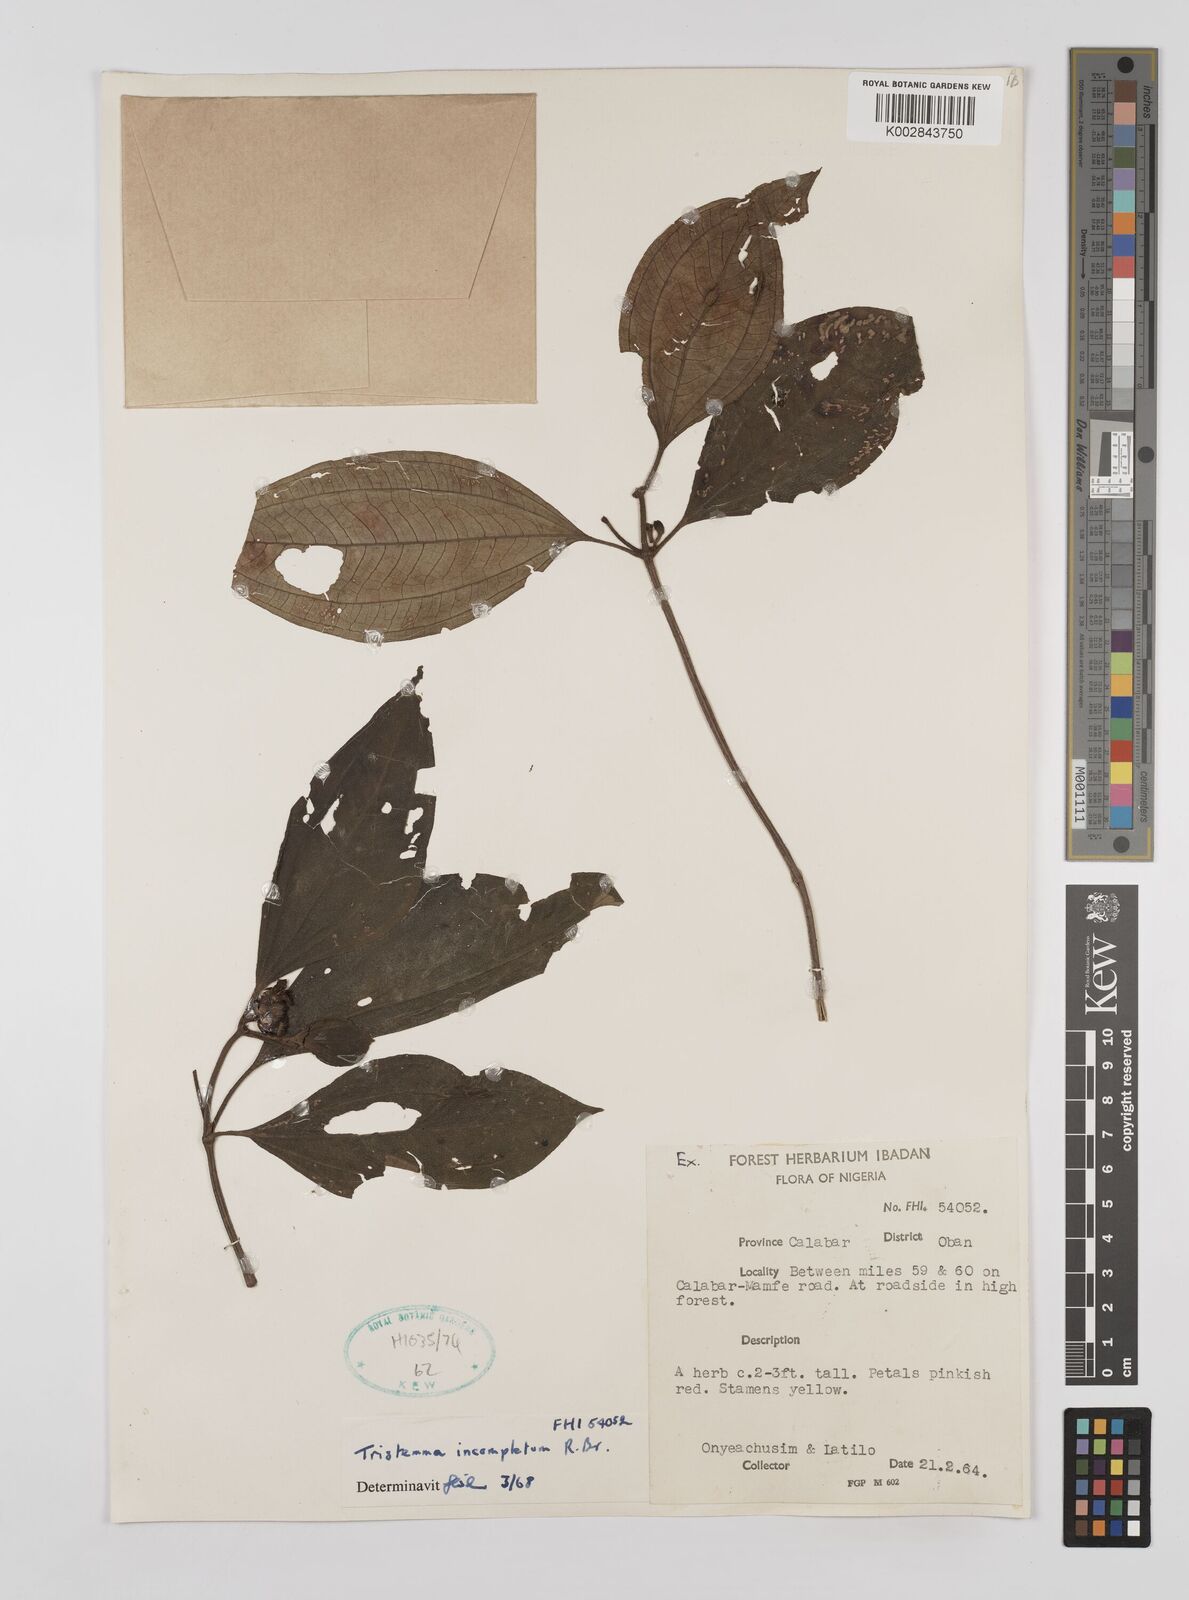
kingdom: Plantae
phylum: Tracheophyta
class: Magnoliopsida
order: Myrtales
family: Melastomataceae
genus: Tristemma
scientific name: Tristemma mauritianum
